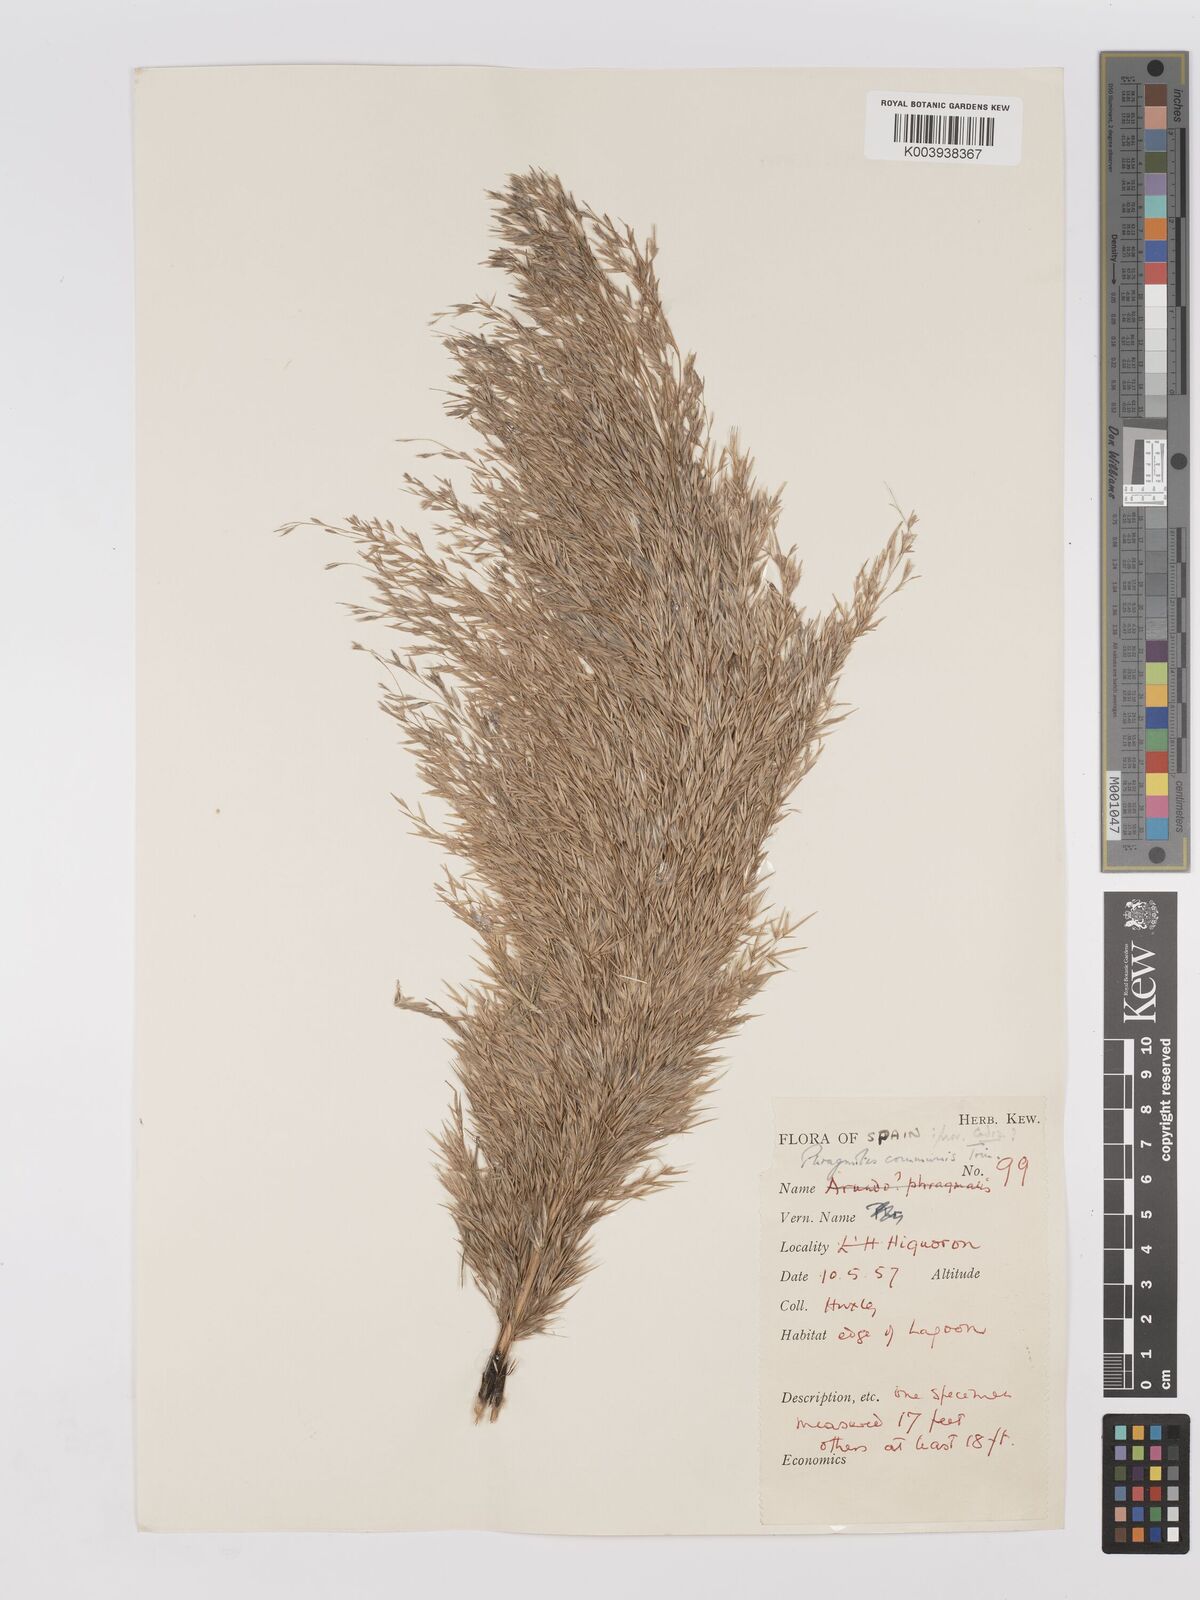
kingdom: Plantae
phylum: Tracheophyta
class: Liliopsida
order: Poales
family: Poaceae
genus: Phragmites
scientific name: Phragmites australis
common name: Common reed
